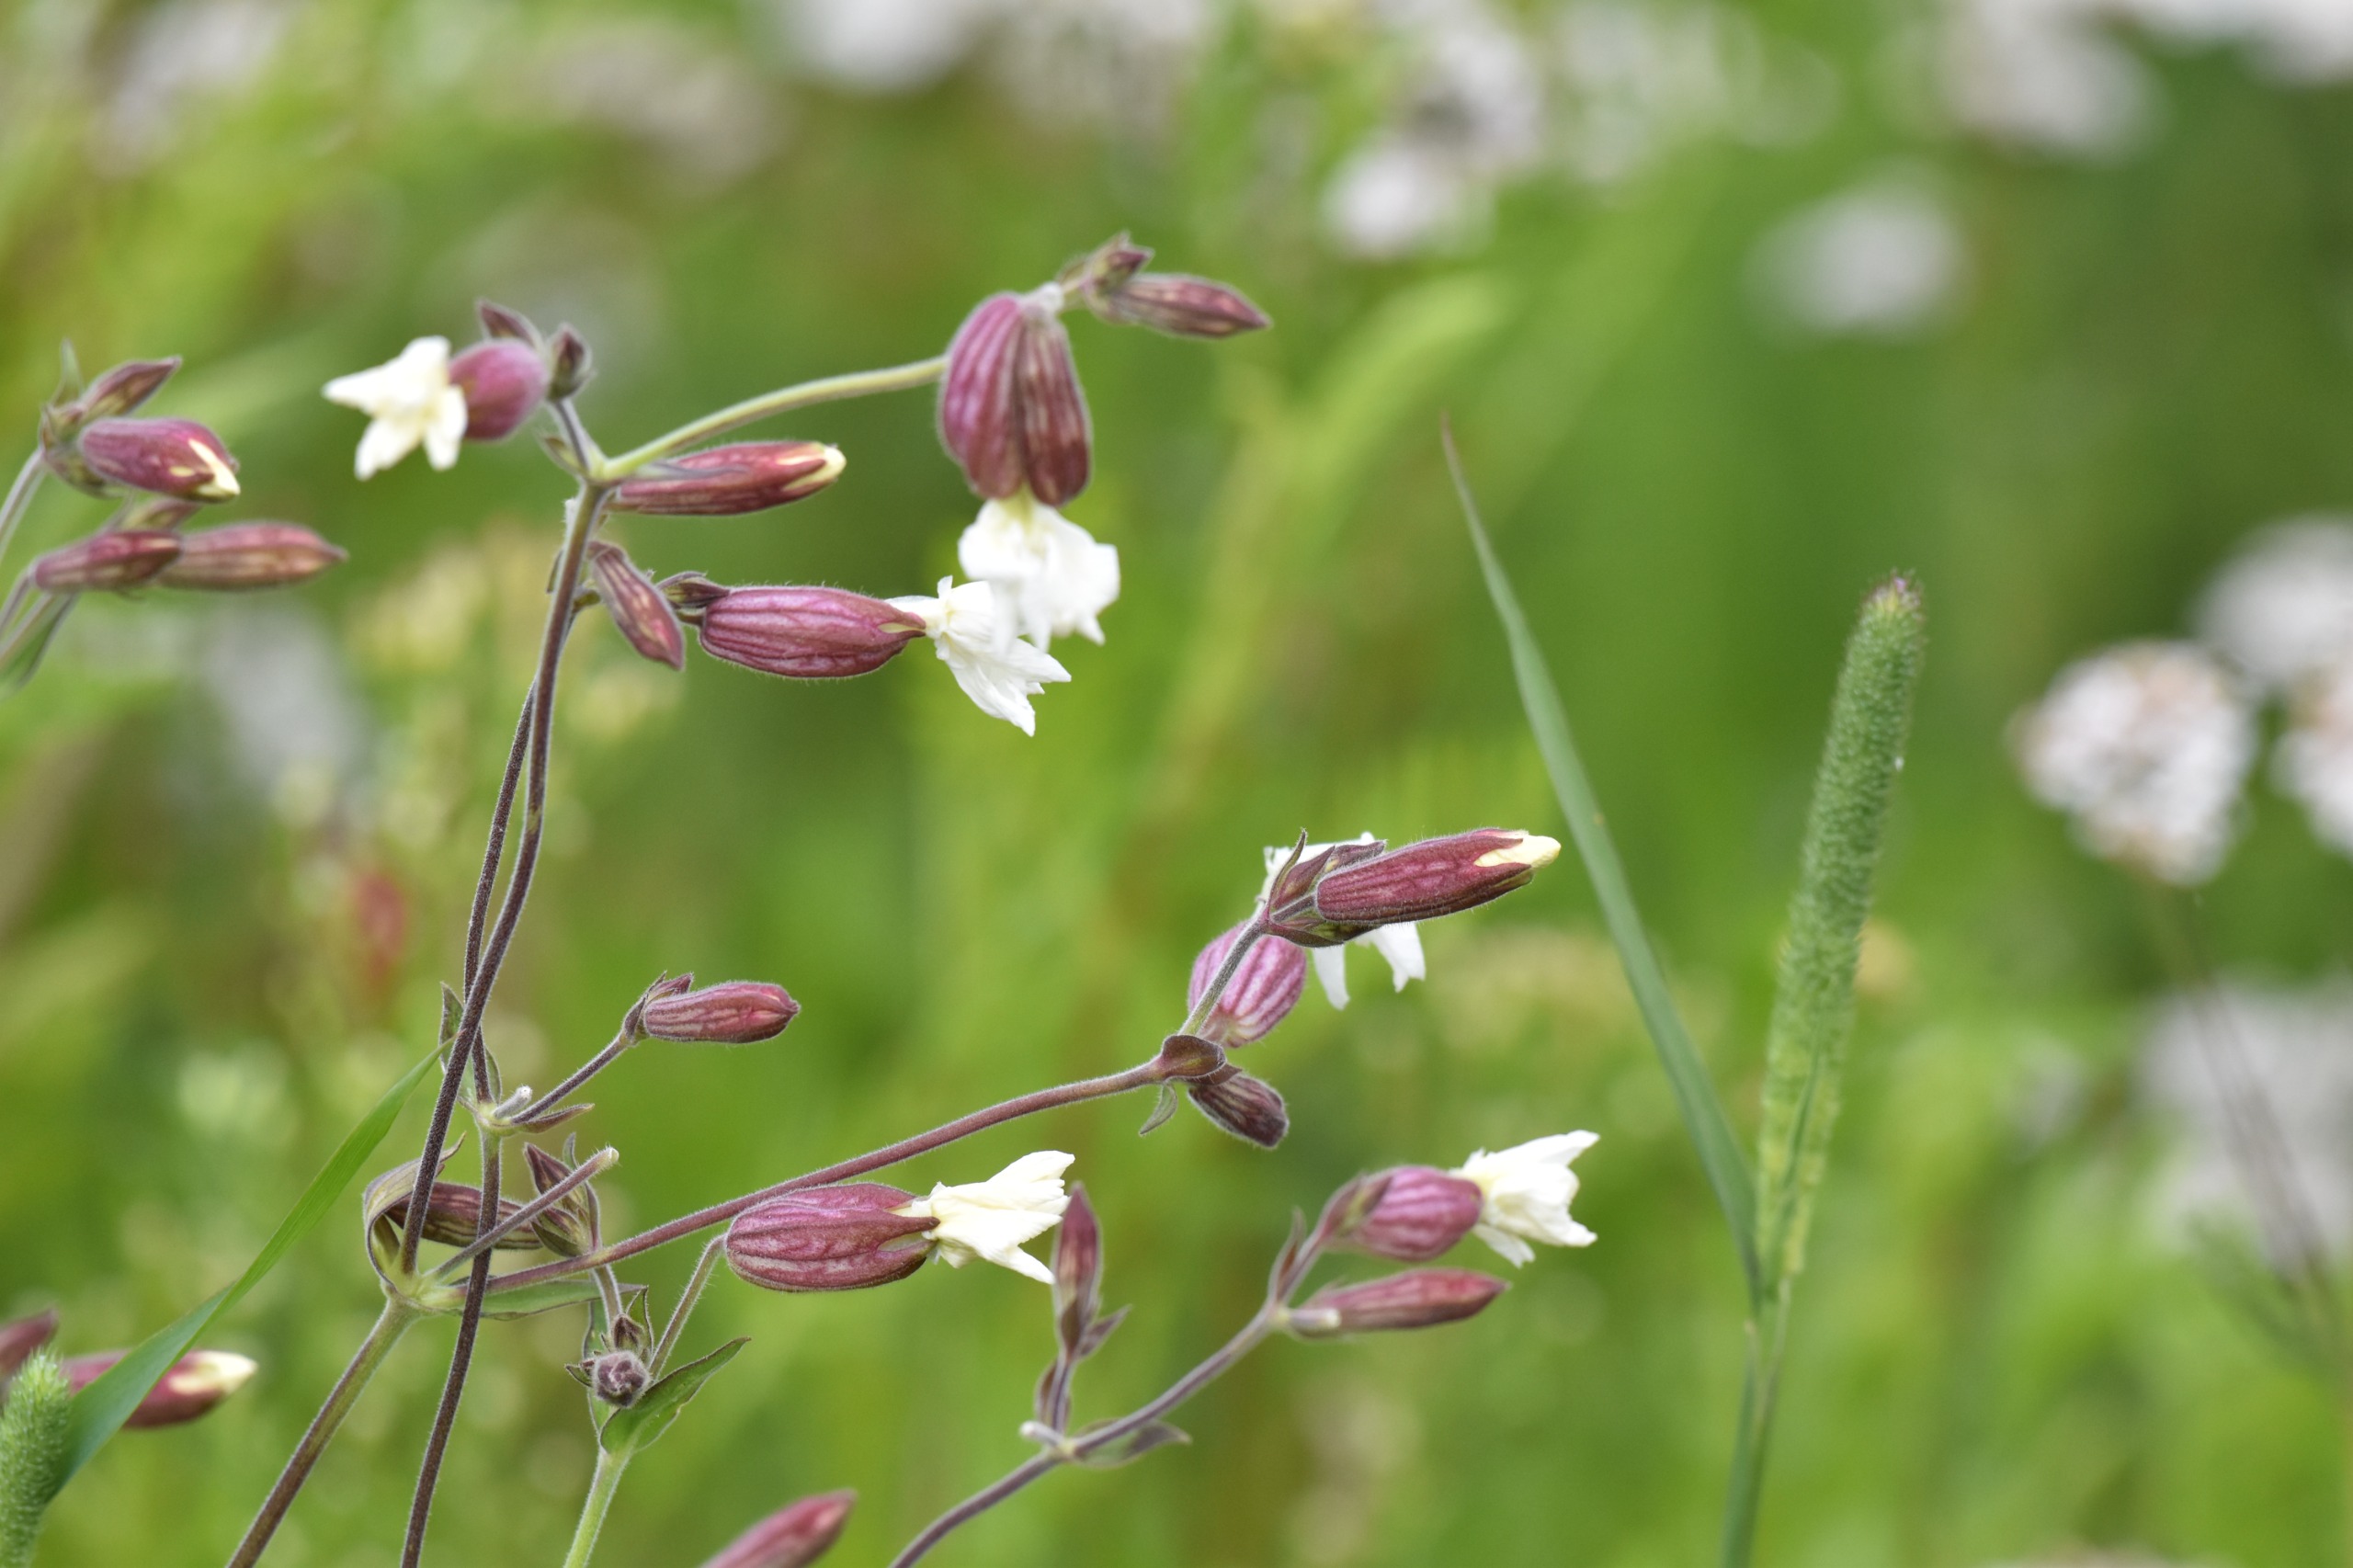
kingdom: Plantae
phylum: Tracheophyta
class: Magnoliopsida
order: Caryophyllales
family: Caryophyllaceae
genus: Silene
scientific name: Silene latifolia
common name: Aftenpragtstjerne
